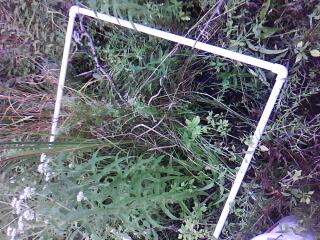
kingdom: Plantae
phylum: Tracheophyta
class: Liliopsida
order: Poales
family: Poaceae
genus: Muhlenbergia
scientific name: Muhlenbergia mexicana
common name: Mexican muhly
